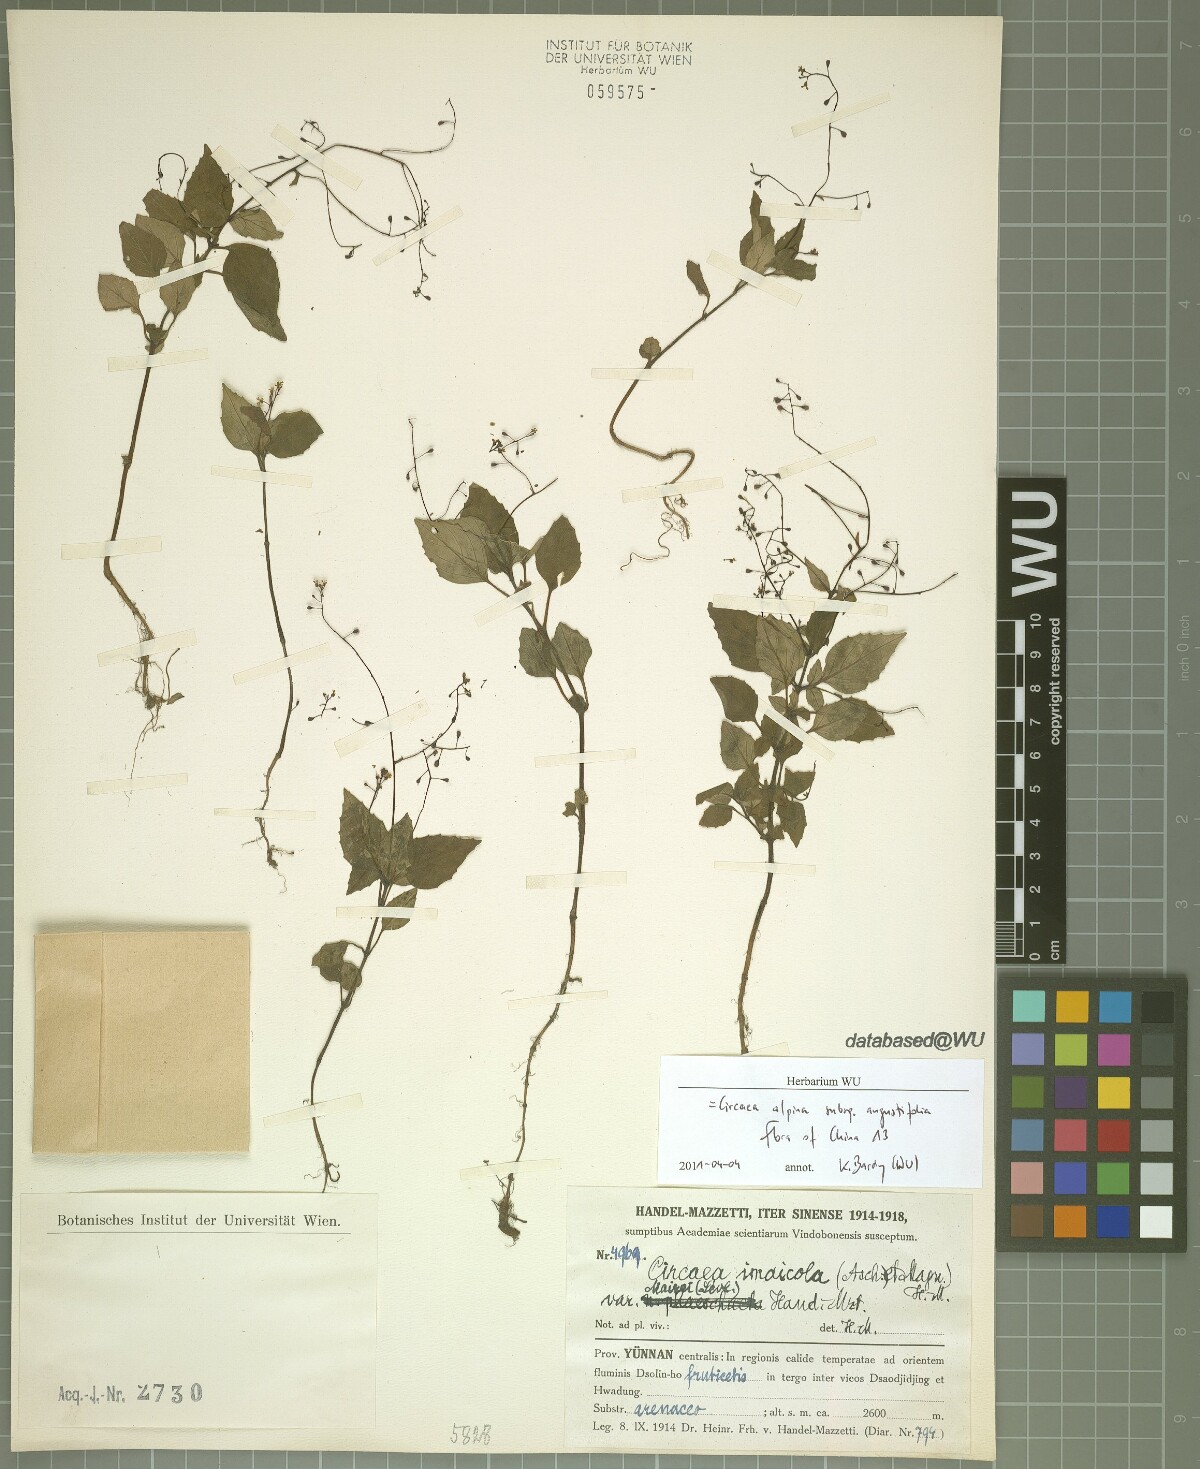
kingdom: Plantae
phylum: Tracheophyta
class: Magnoliopsida
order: Myrtales
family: Onagraceae
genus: Circaea
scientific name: Circaea alpina
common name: Alpine enchanter's-nightshade
